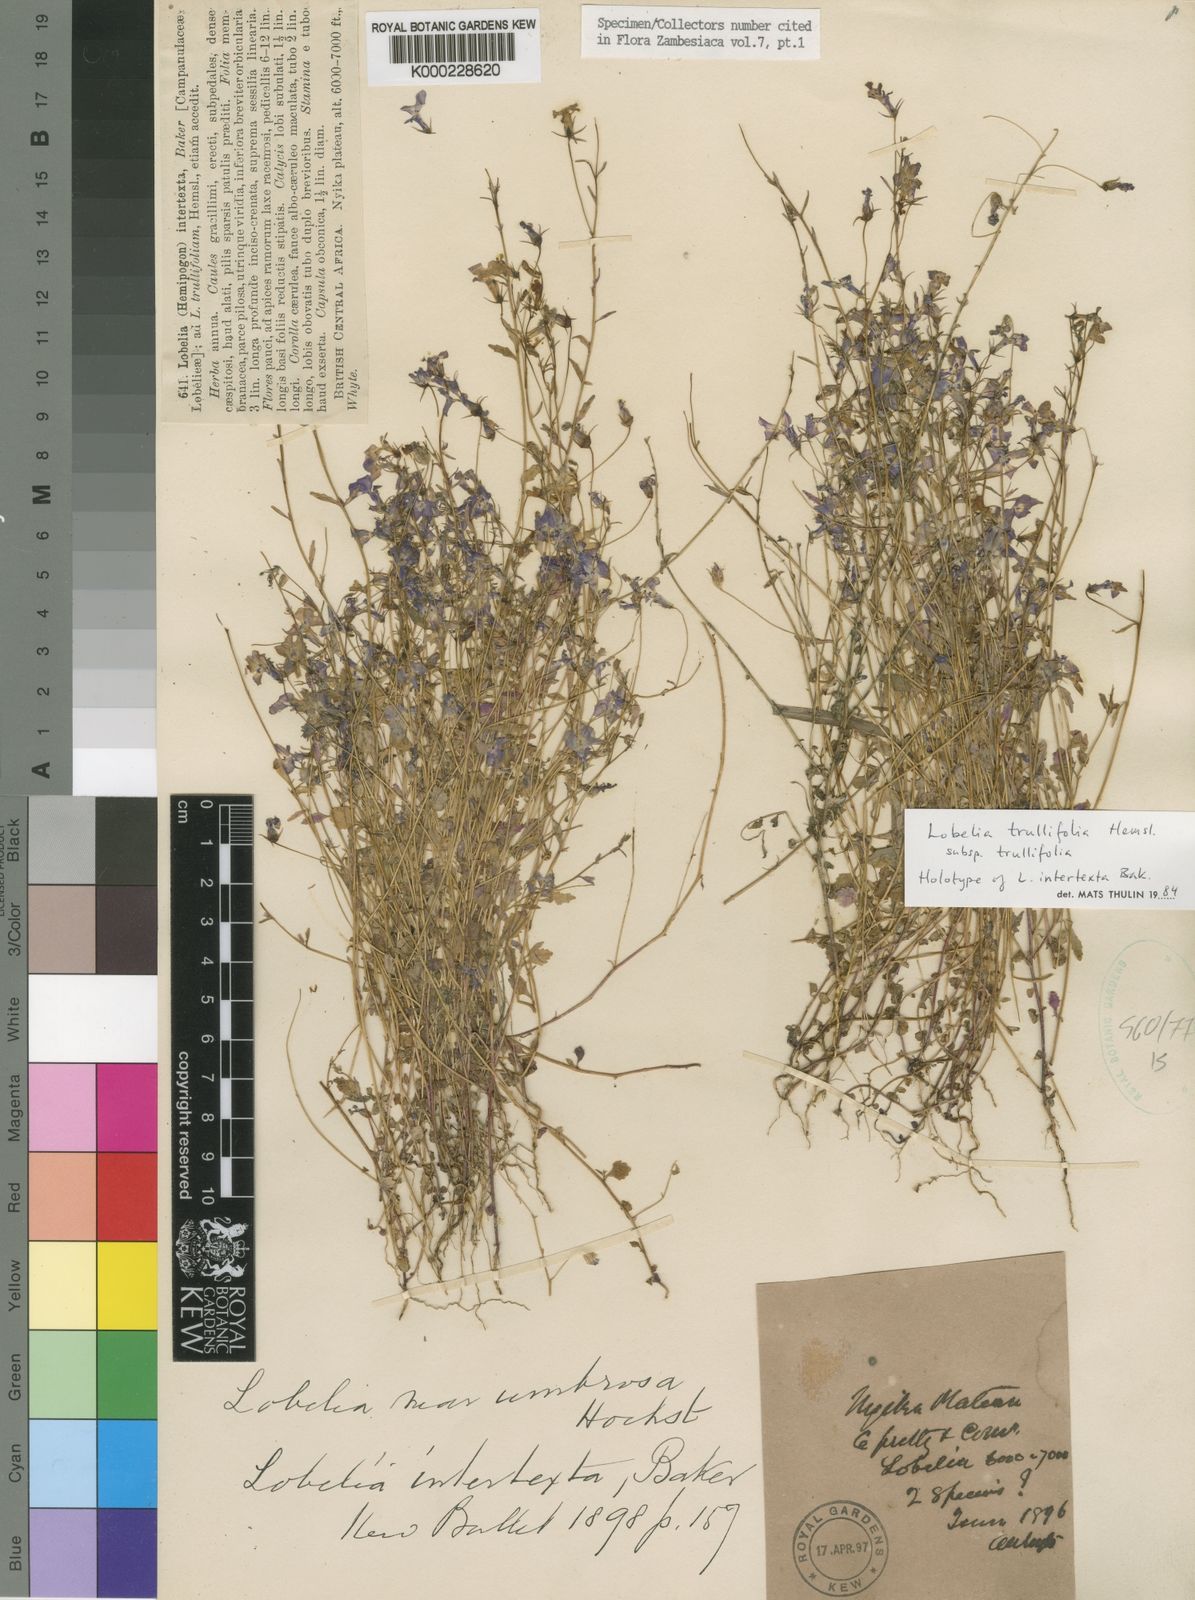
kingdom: Plantae
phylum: Tracheophyta
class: Magnoliopsida
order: Asterales
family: Campanulaceae
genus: Lobelia
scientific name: Lobelia trullifolia
